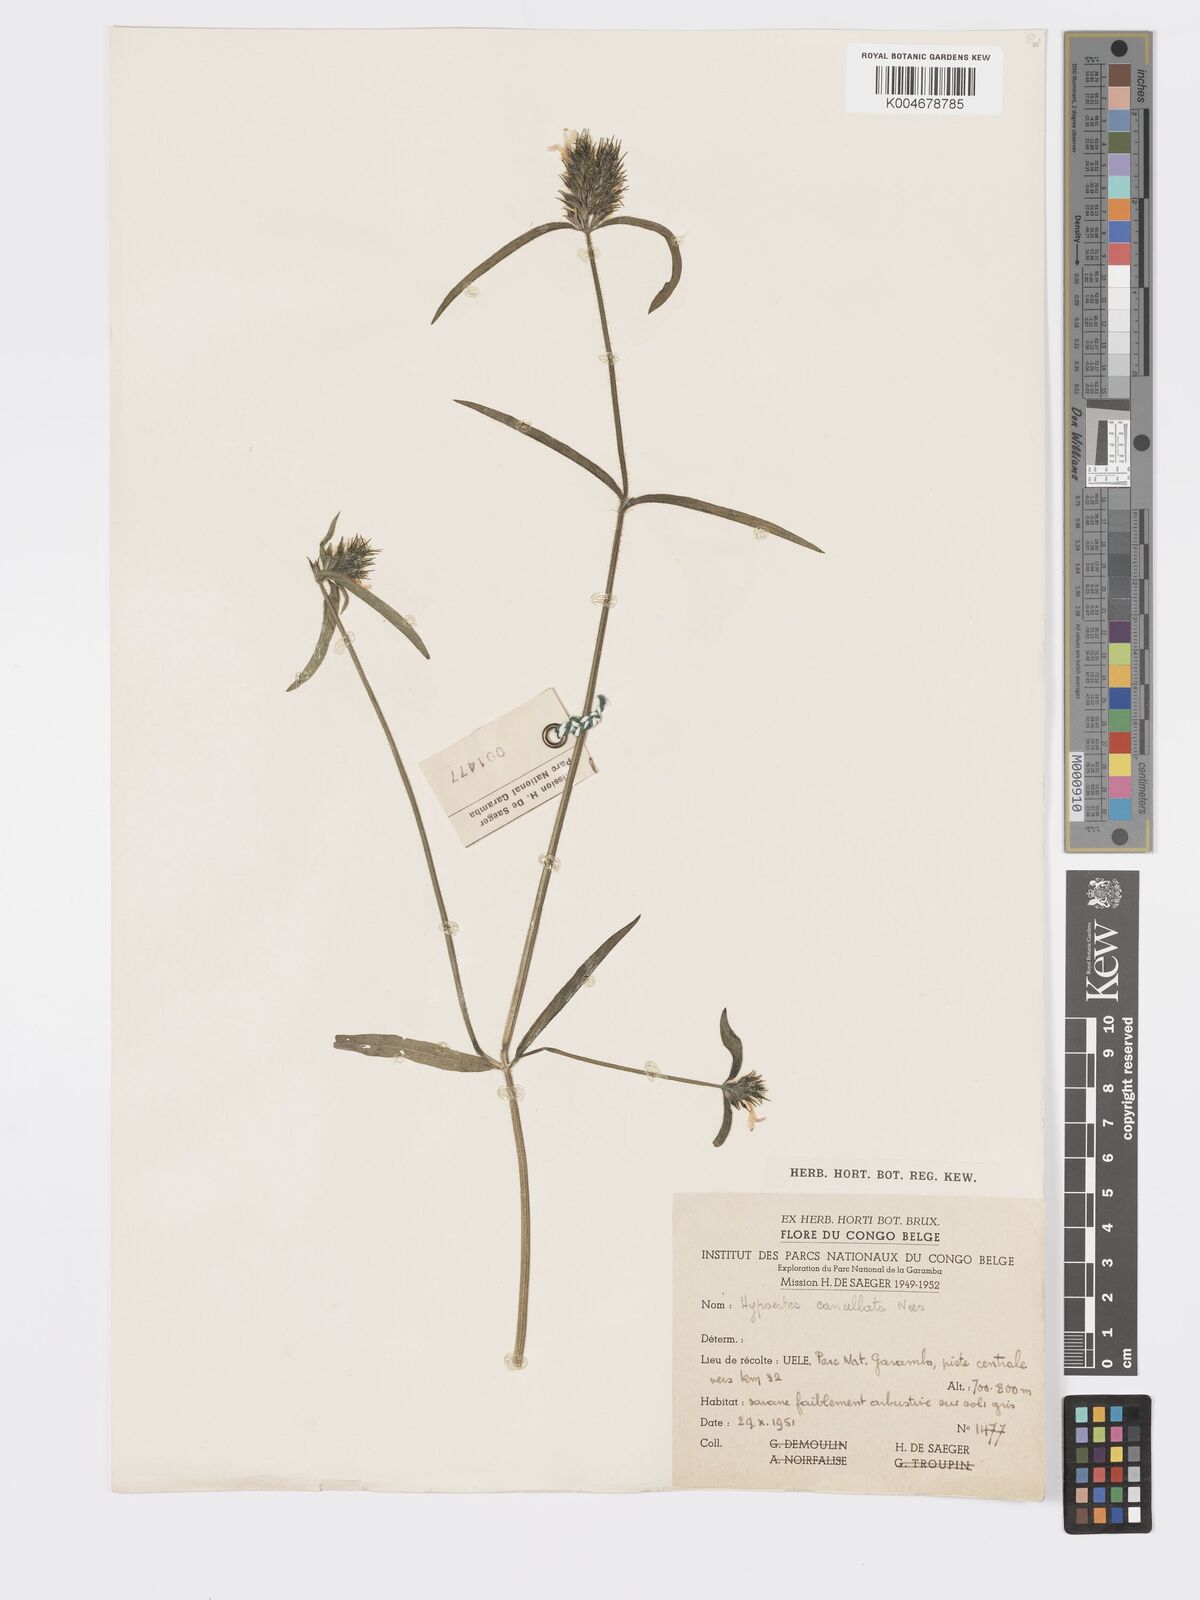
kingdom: Plantae
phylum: Tracheophyta
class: Magnoliopsida
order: Lamiales
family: Acanthaceae
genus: Hypoestes
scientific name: Hypoestes cancellata
